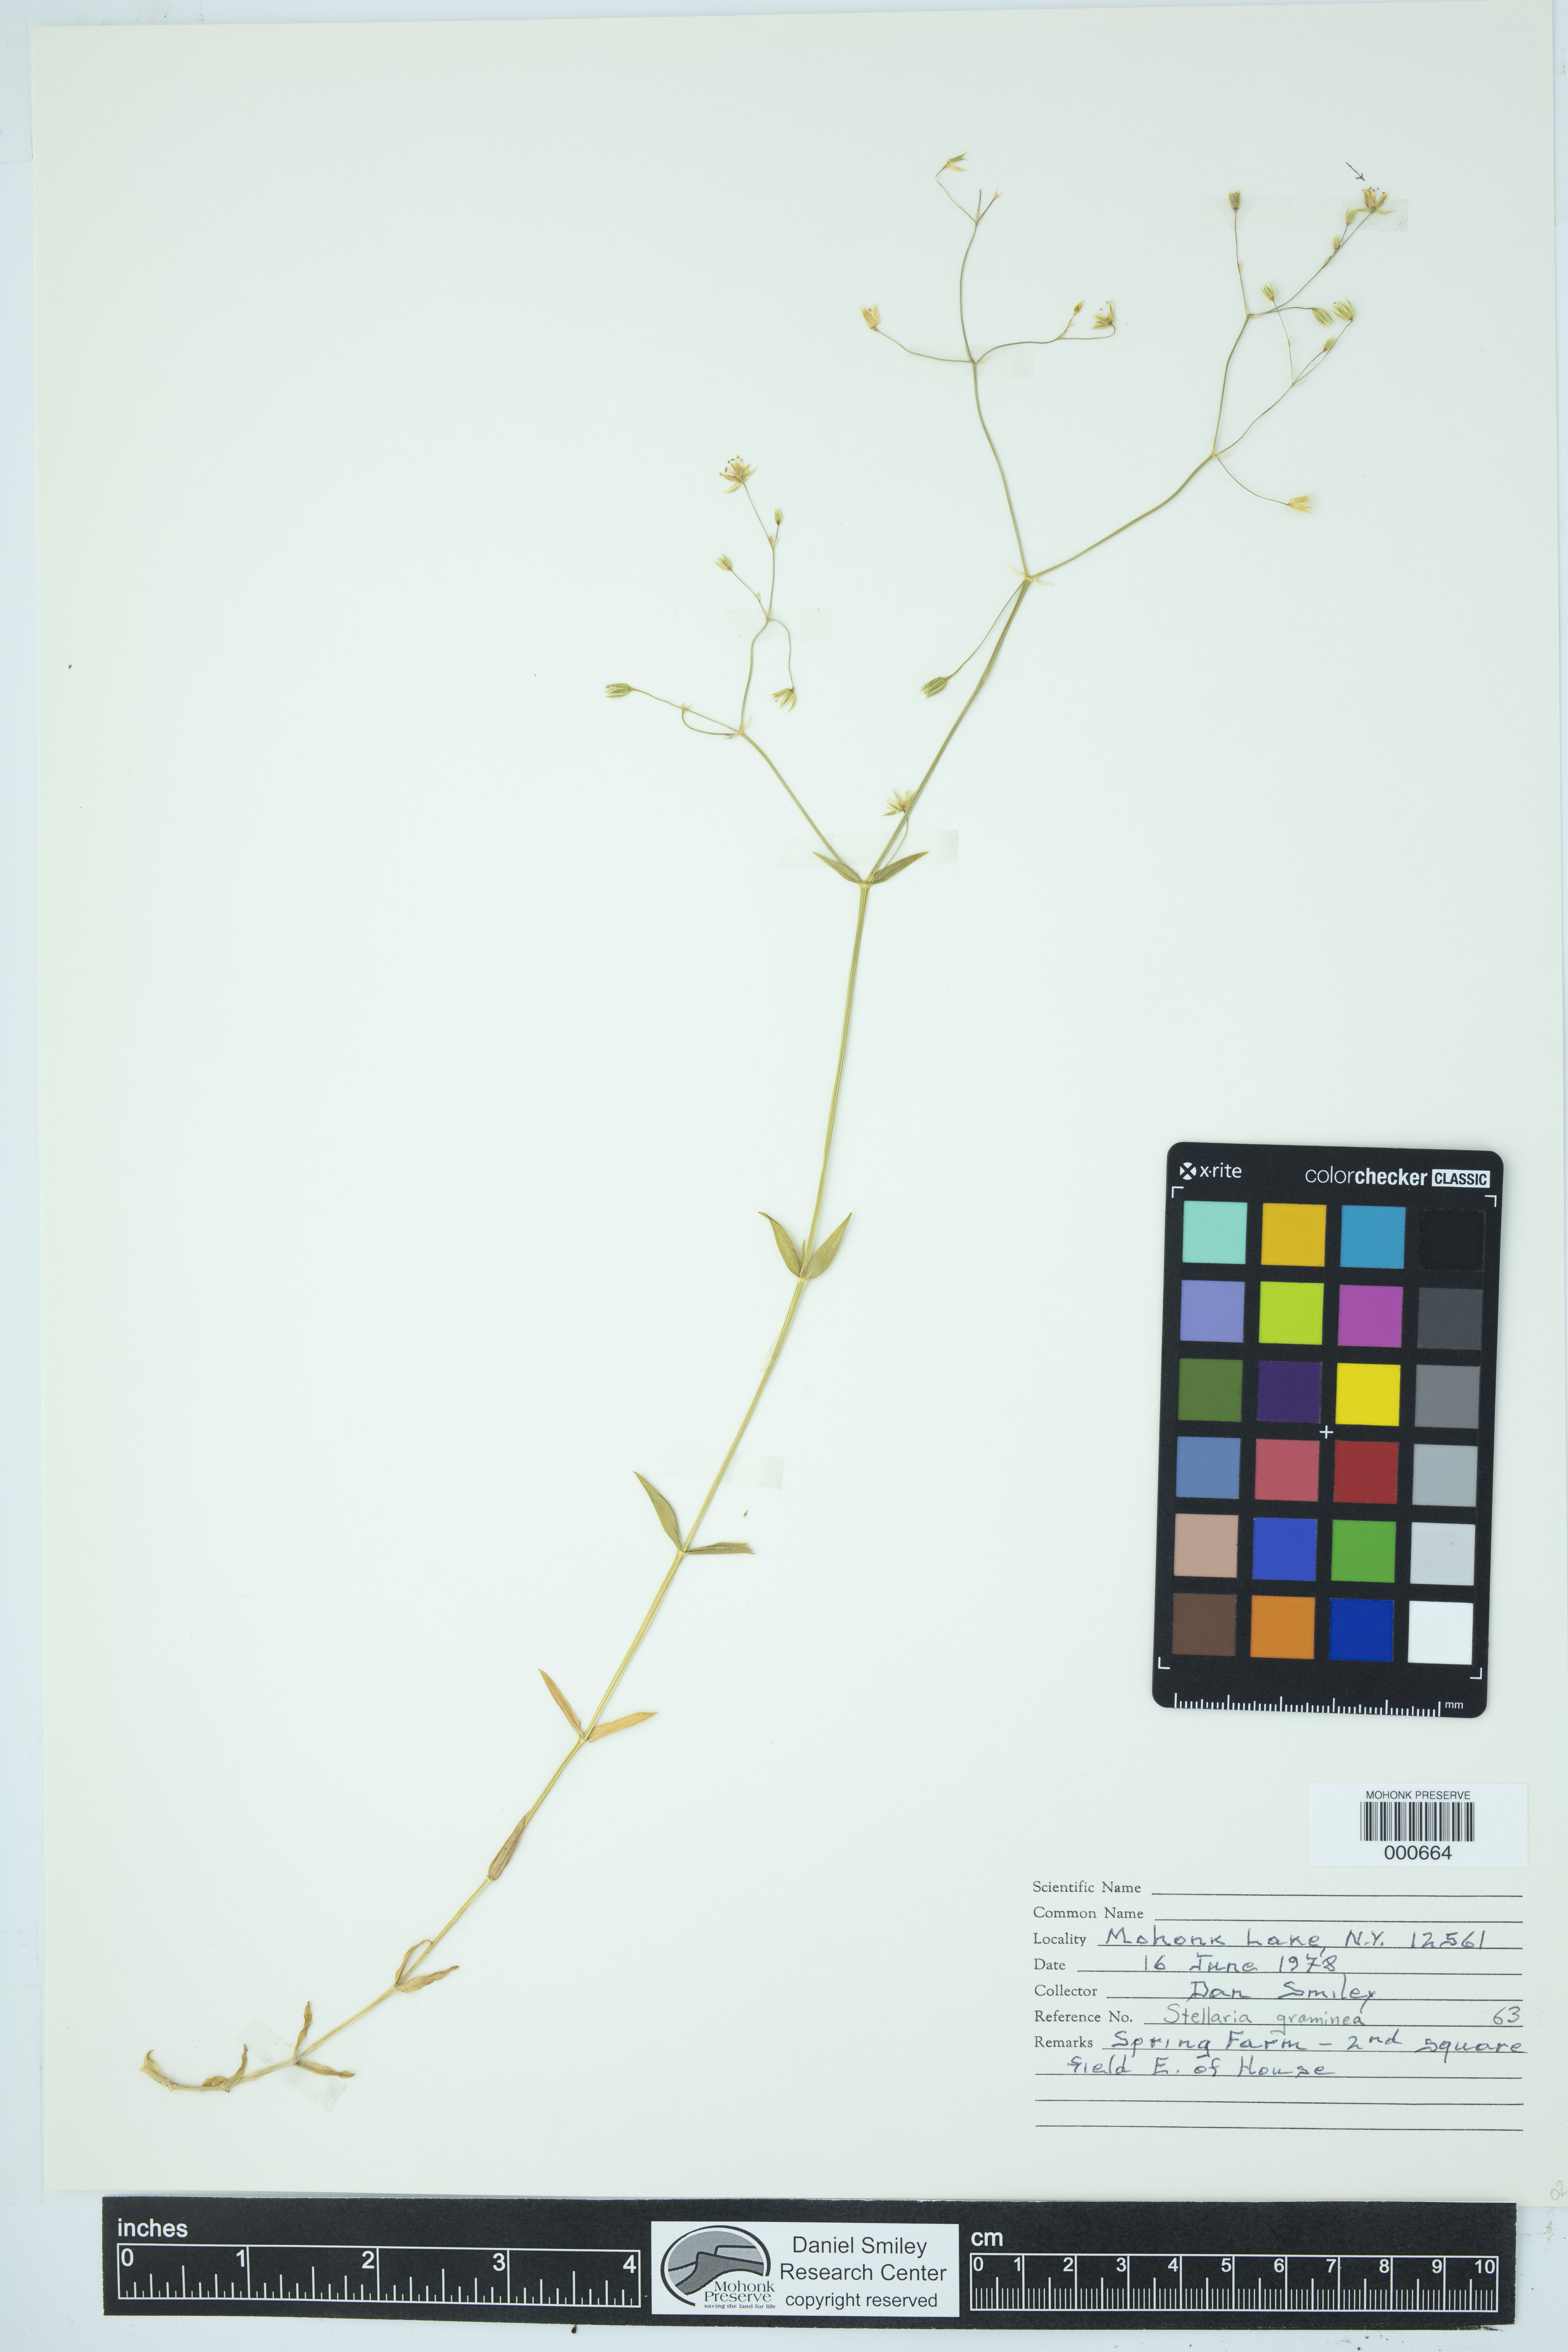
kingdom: Plantae
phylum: Tracheophyta
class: Magnoliopsida
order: Caryophyllales
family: Caryophyllaceae
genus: Stellaria
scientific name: Stellaria graminea
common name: Grass-like starwort
